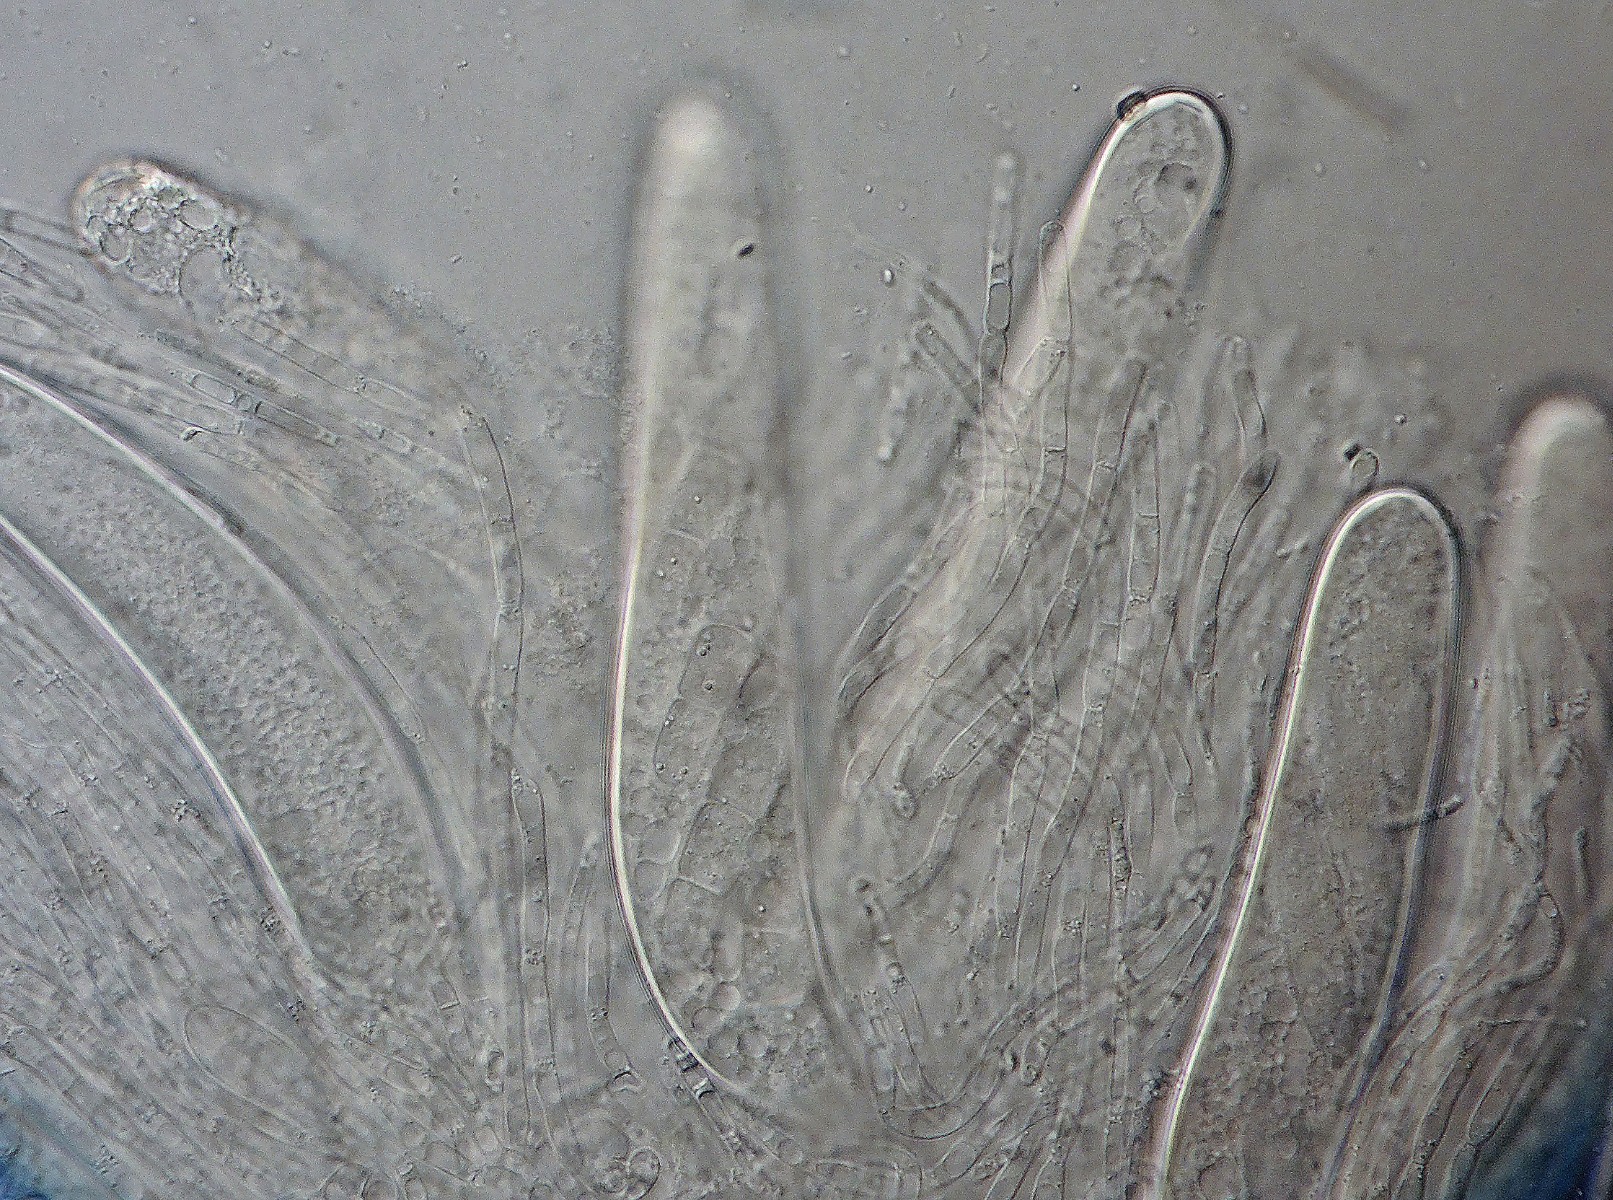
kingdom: Fungi
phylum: Ascomycota
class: Dothideomycetes
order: Pleosporales
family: Sporormiaceae
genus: Sporormiella
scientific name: Sporormiella intermedia
